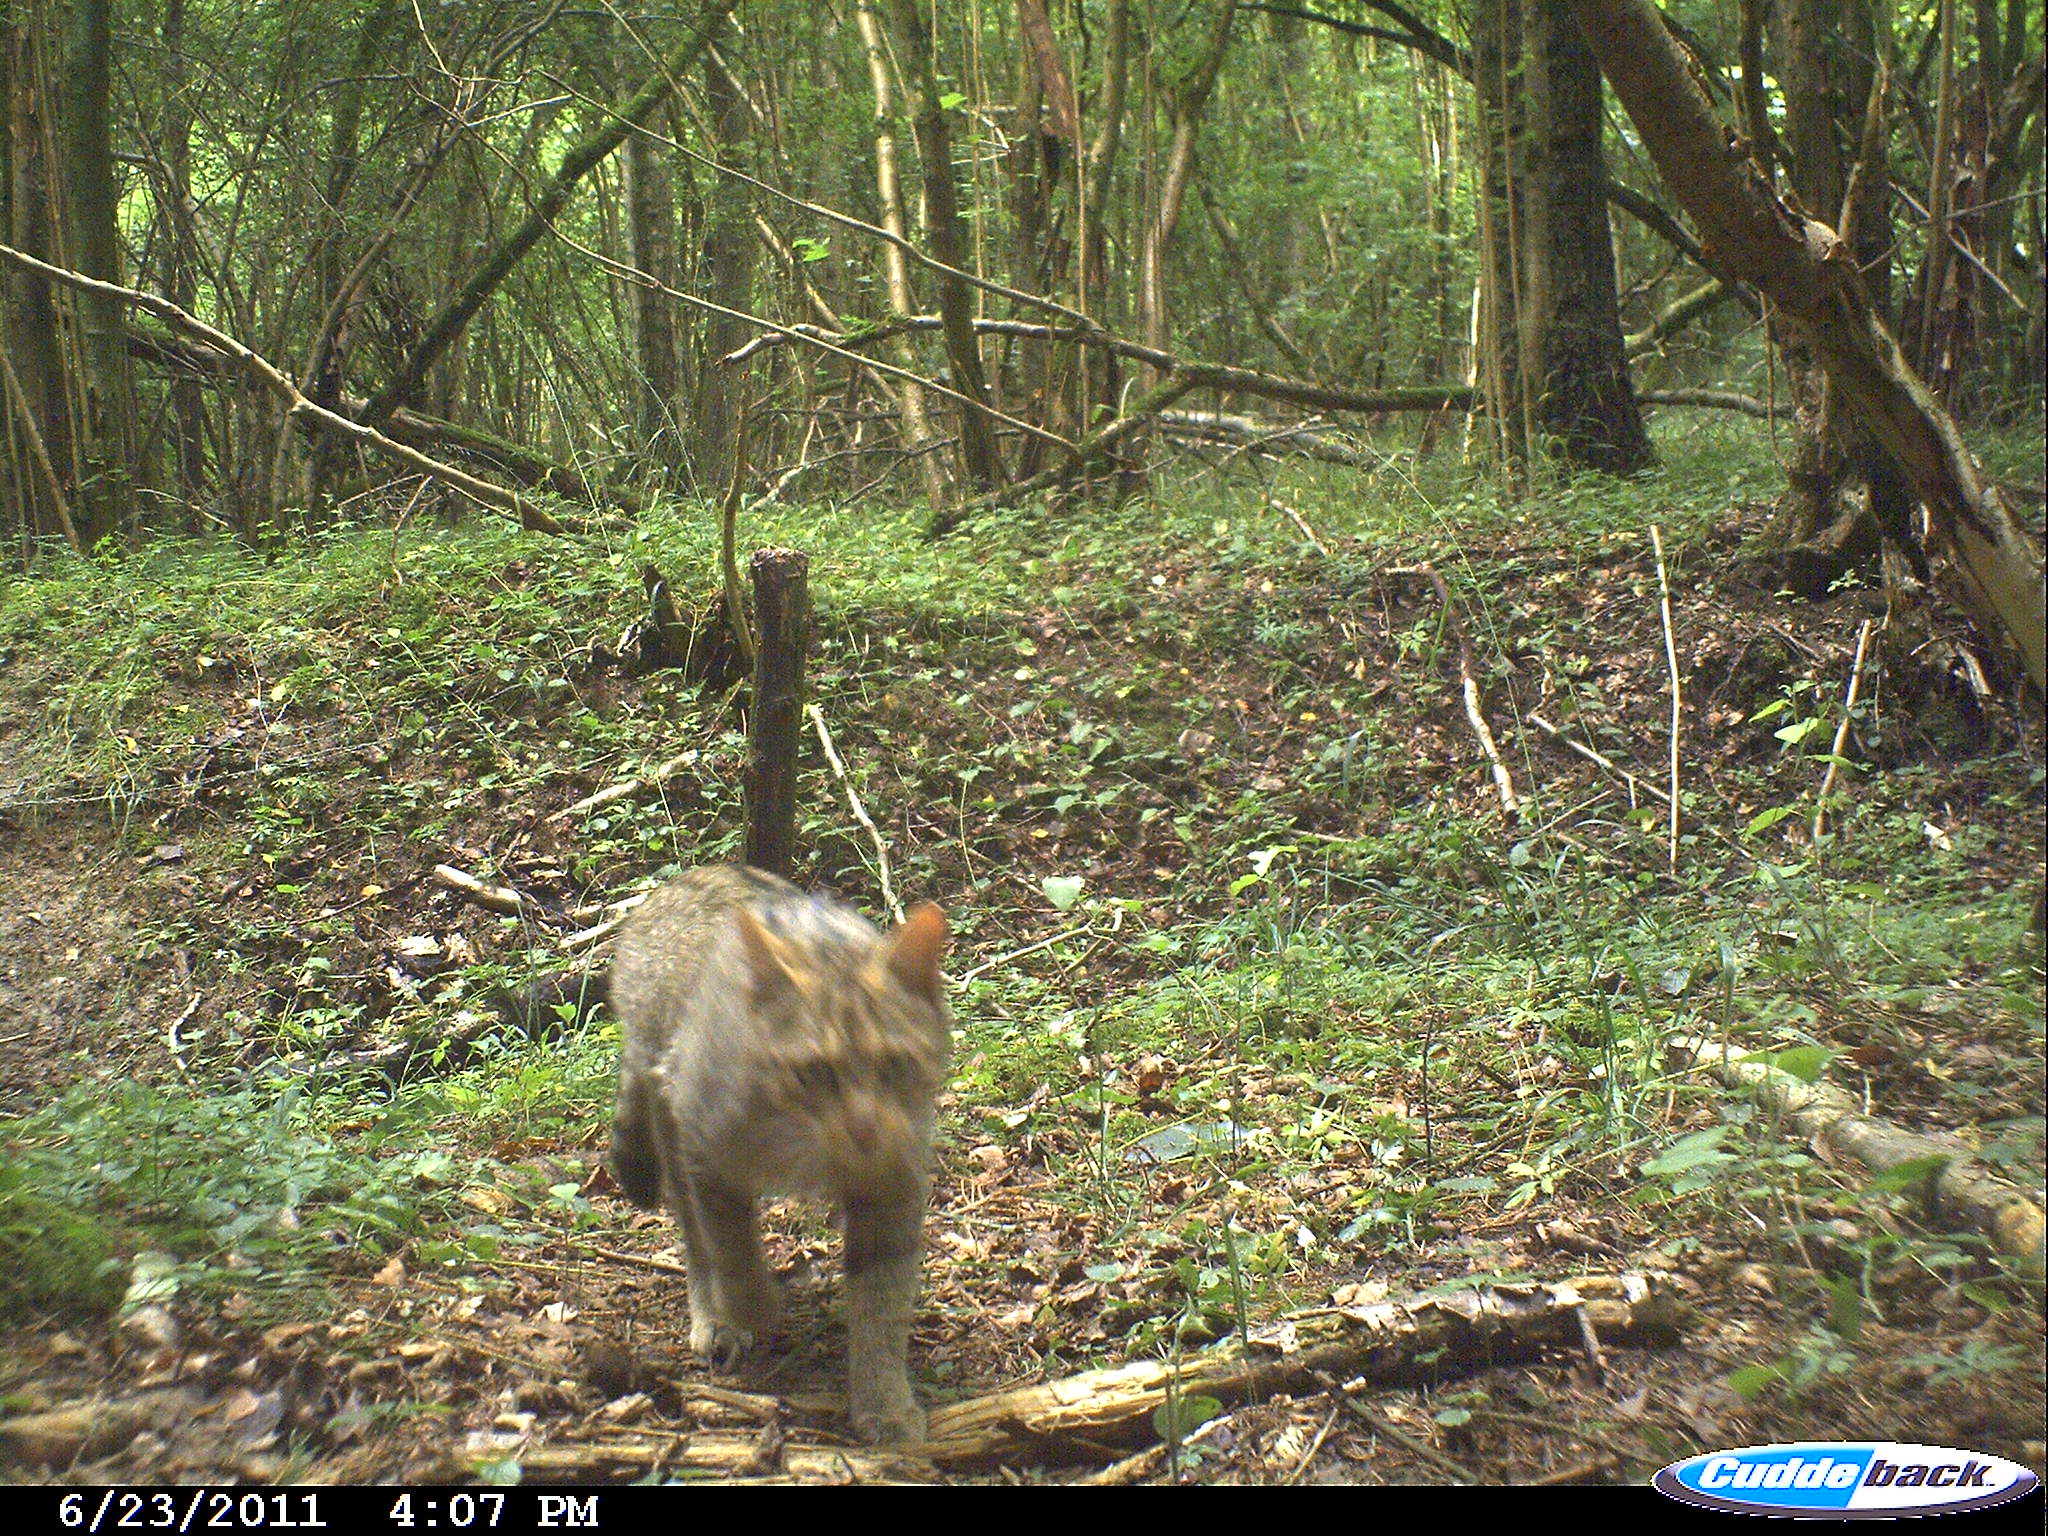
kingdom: Animalia
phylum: Chordata
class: Mammalia
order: Carnivora
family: Felidae
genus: Felis
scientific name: Felis silvestris
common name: Wildcat
